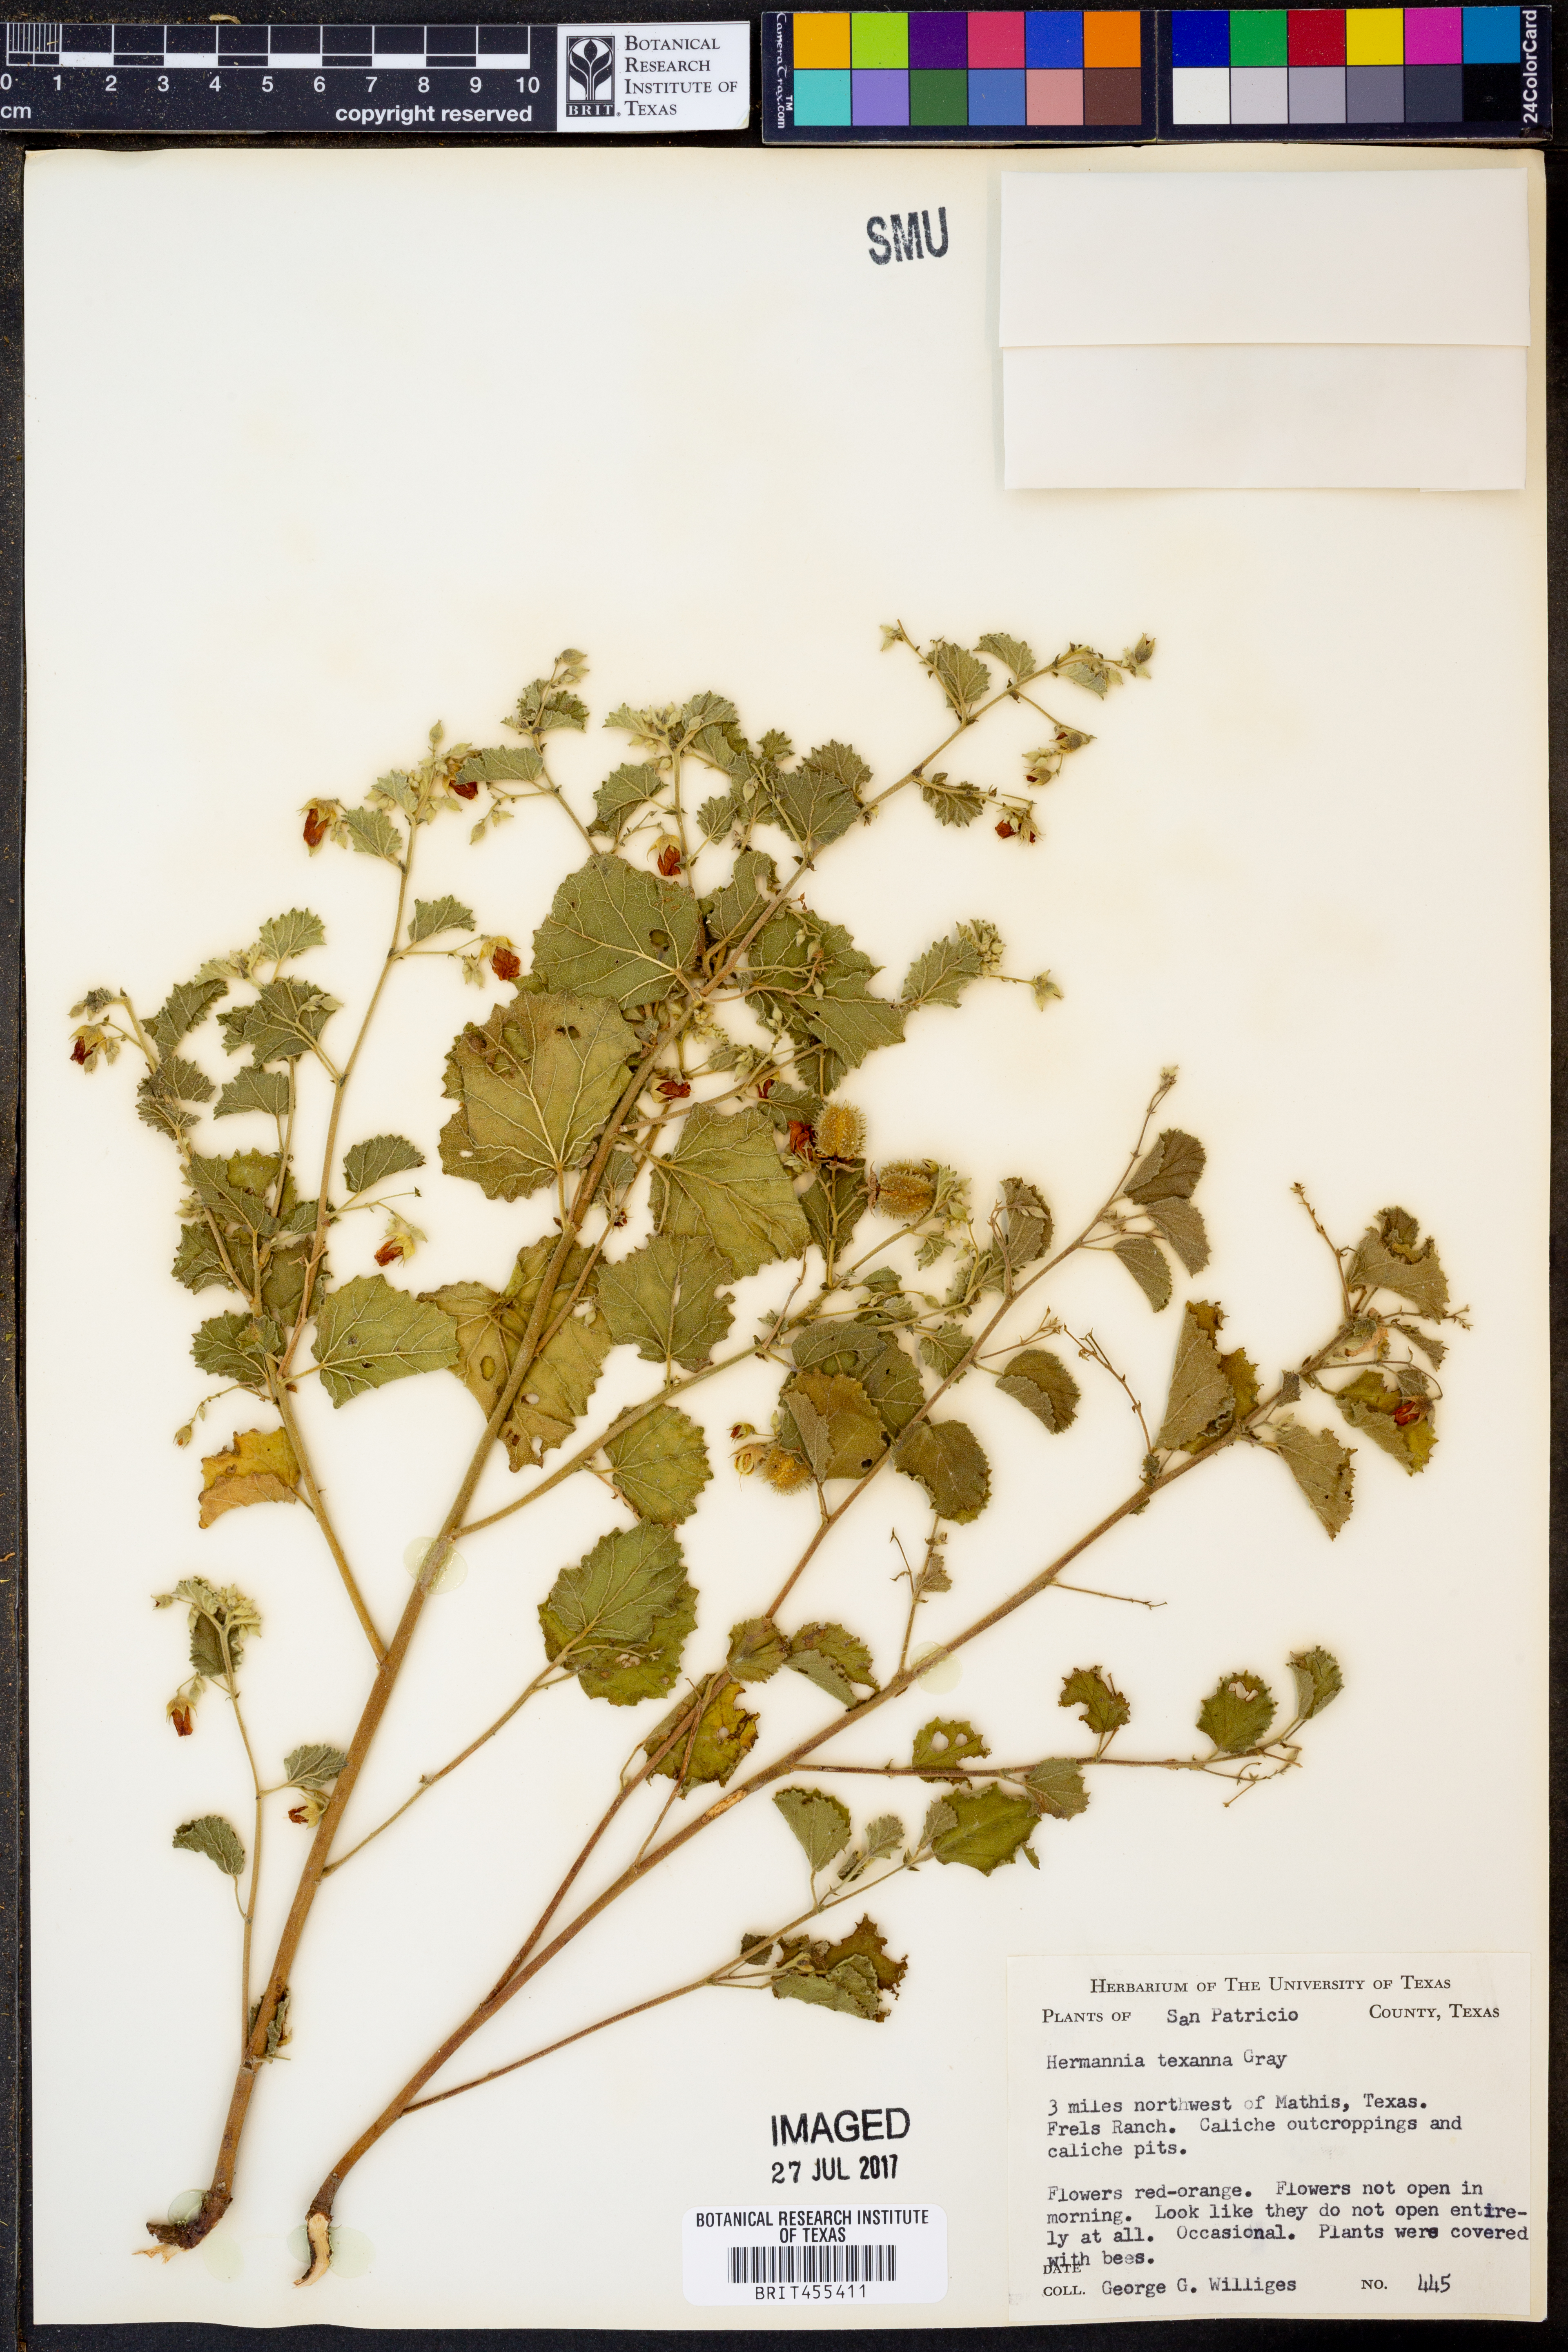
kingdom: Plantae
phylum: Tracheophyta
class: Magnoliopsida
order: Malvales
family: Malvaceae
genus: Hermannia
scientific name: Hermannia texana
